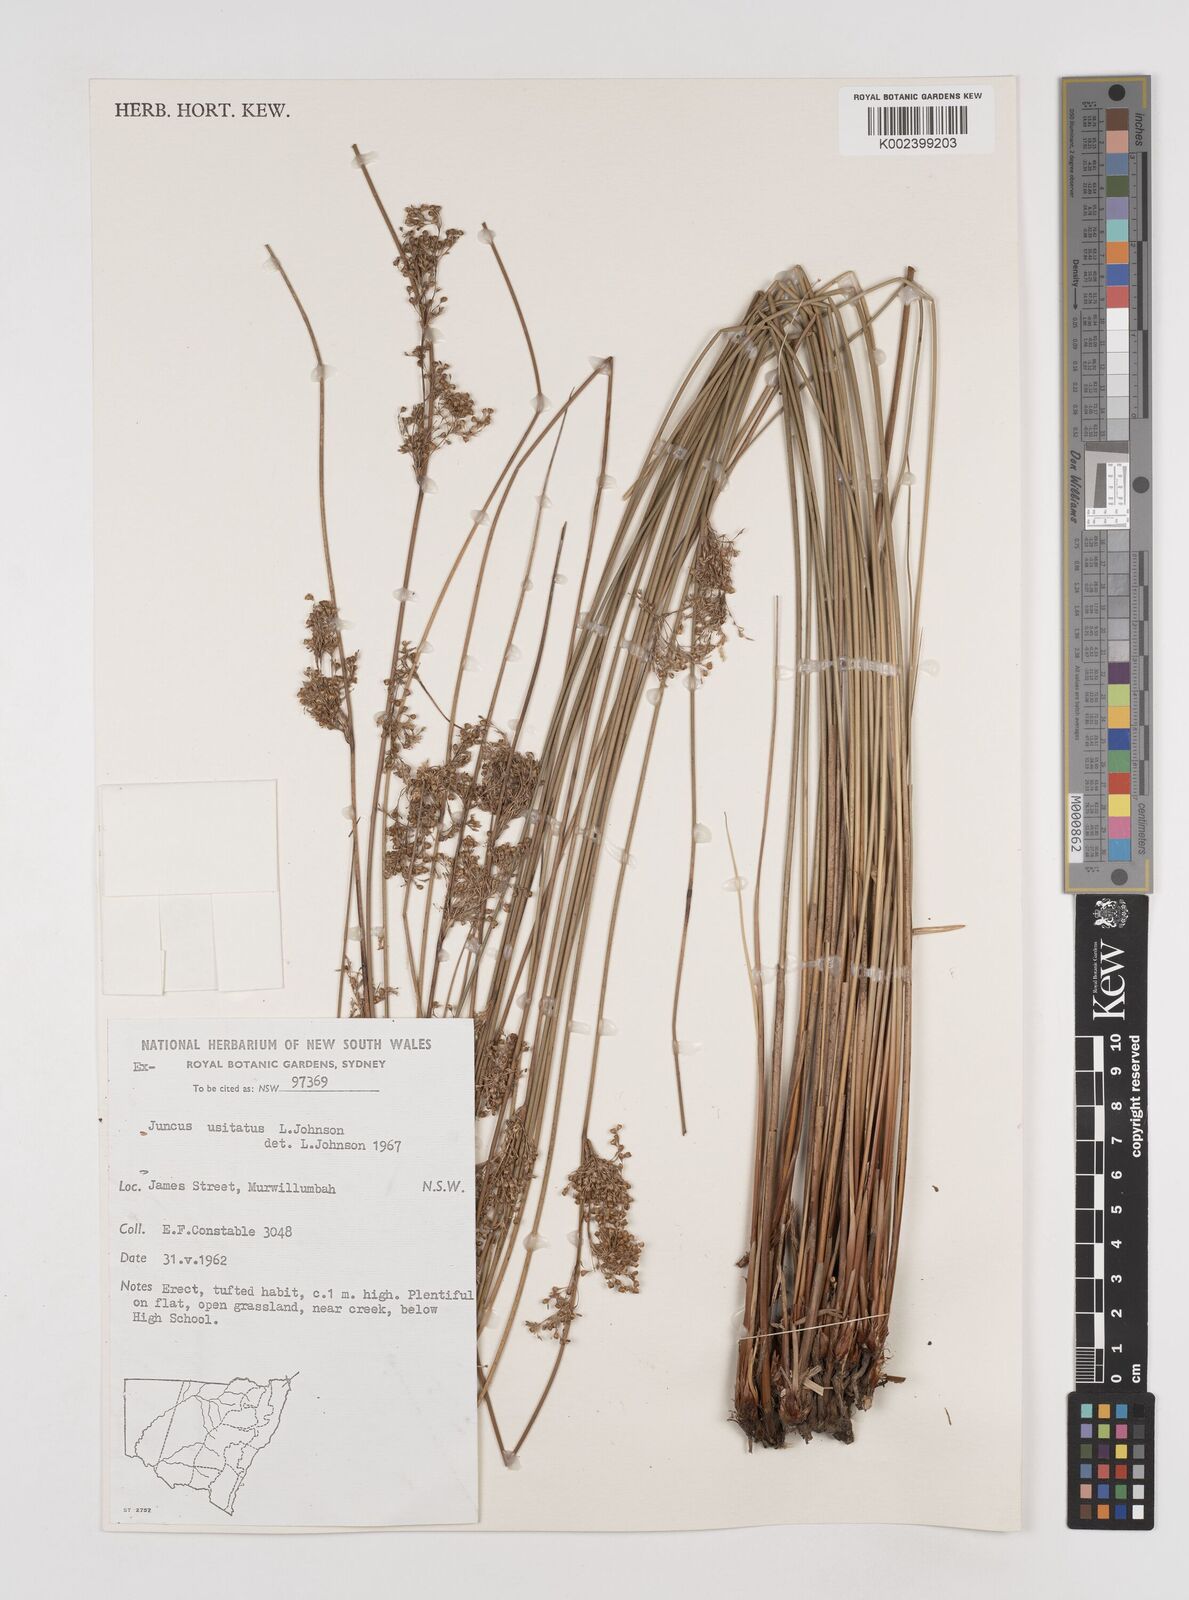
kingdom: Plantae
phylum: Tracheophyta
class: Liliopsida
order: Poales
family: Juncaceae
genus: Juncus
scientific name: Juncus usitatus
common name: Rush
